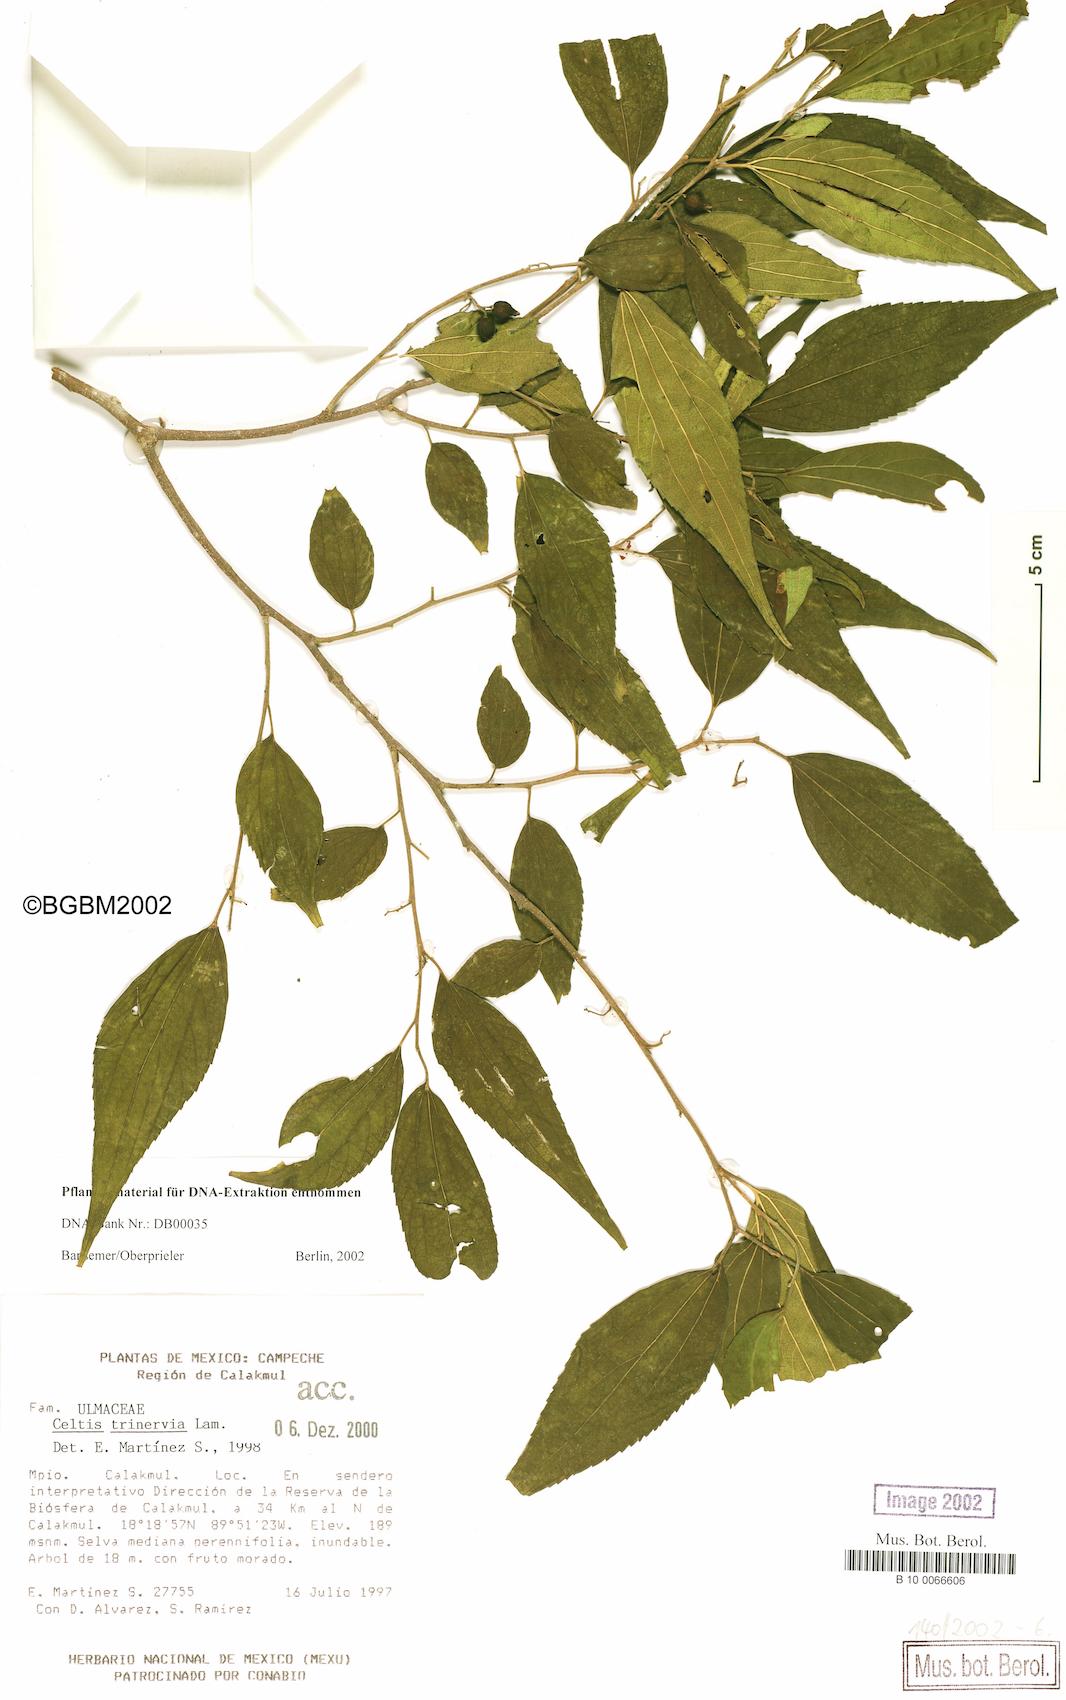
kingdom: Plantae
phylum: Tracheophyta
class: Magnoliopsida
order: Rosales
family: Cannabaceae
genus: Celtis
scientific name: Celtis trinervia
